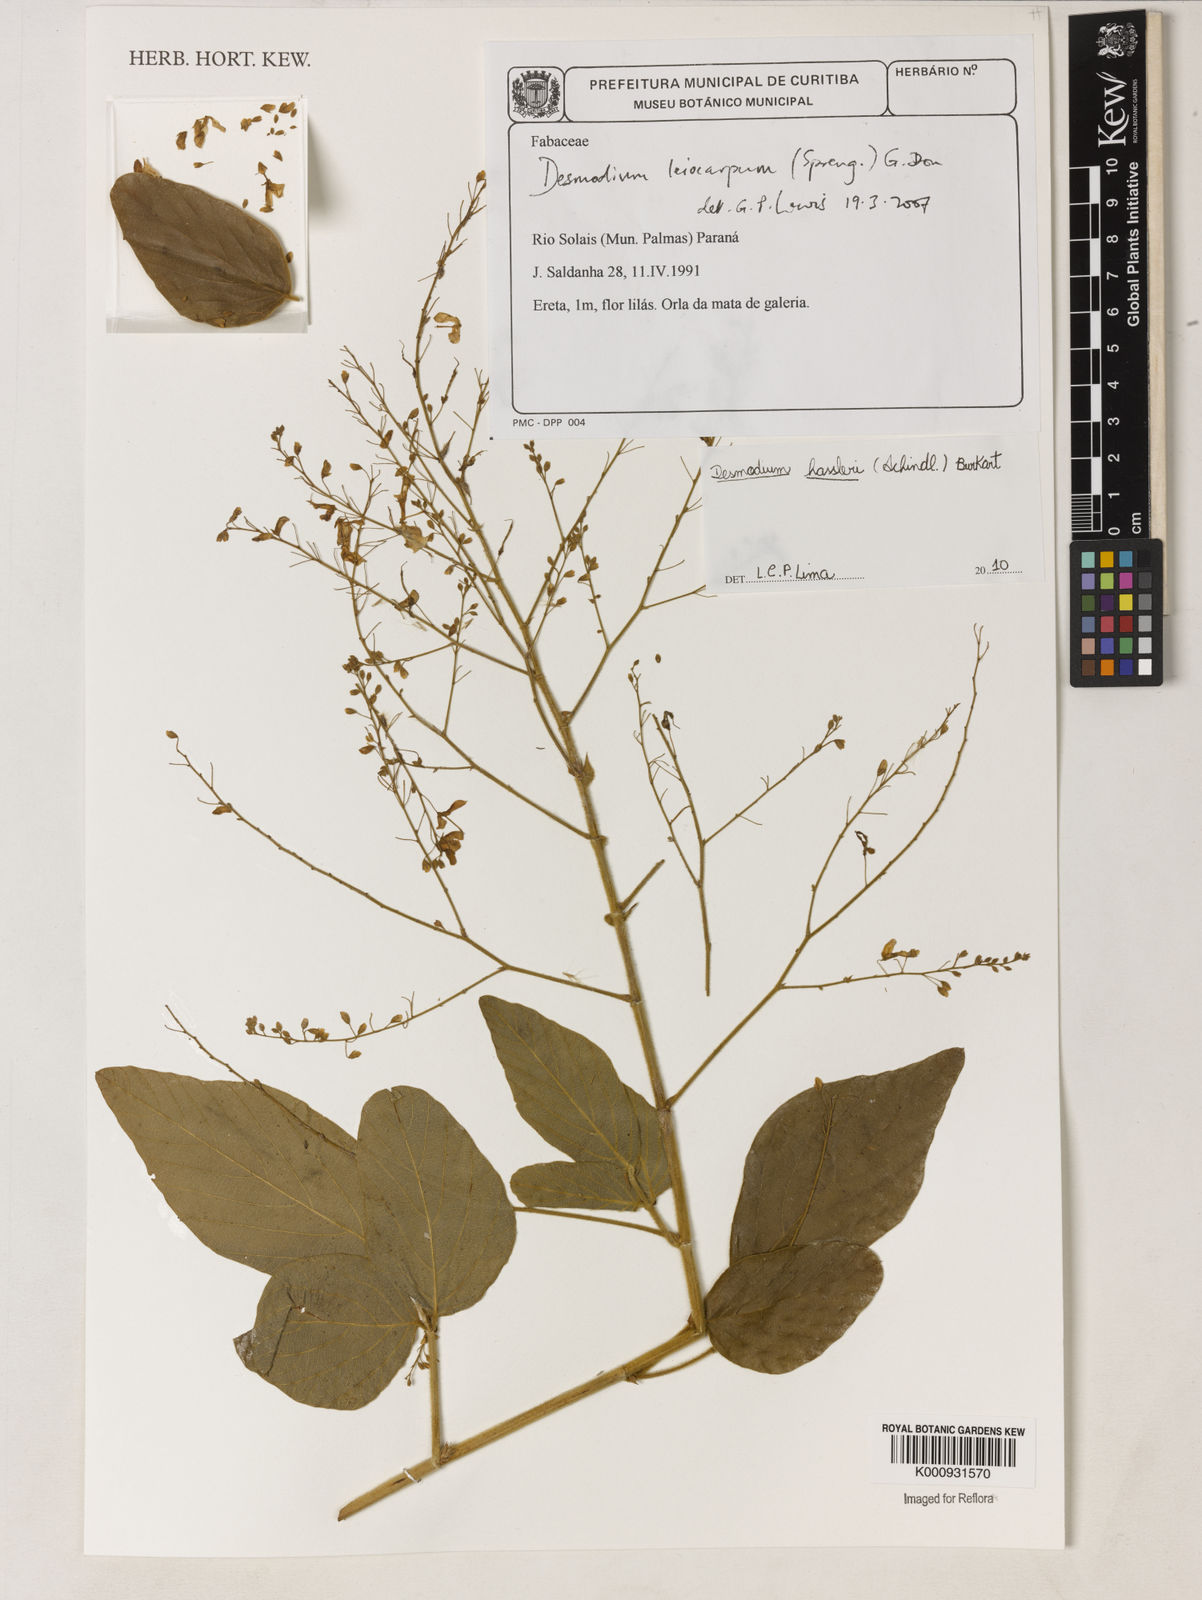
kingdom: Plantae
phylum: Tracheophyta
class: Magnoliopsida
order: Fabales
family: Fabaceae
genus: Desmodium
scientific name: Desmodium hassleri
